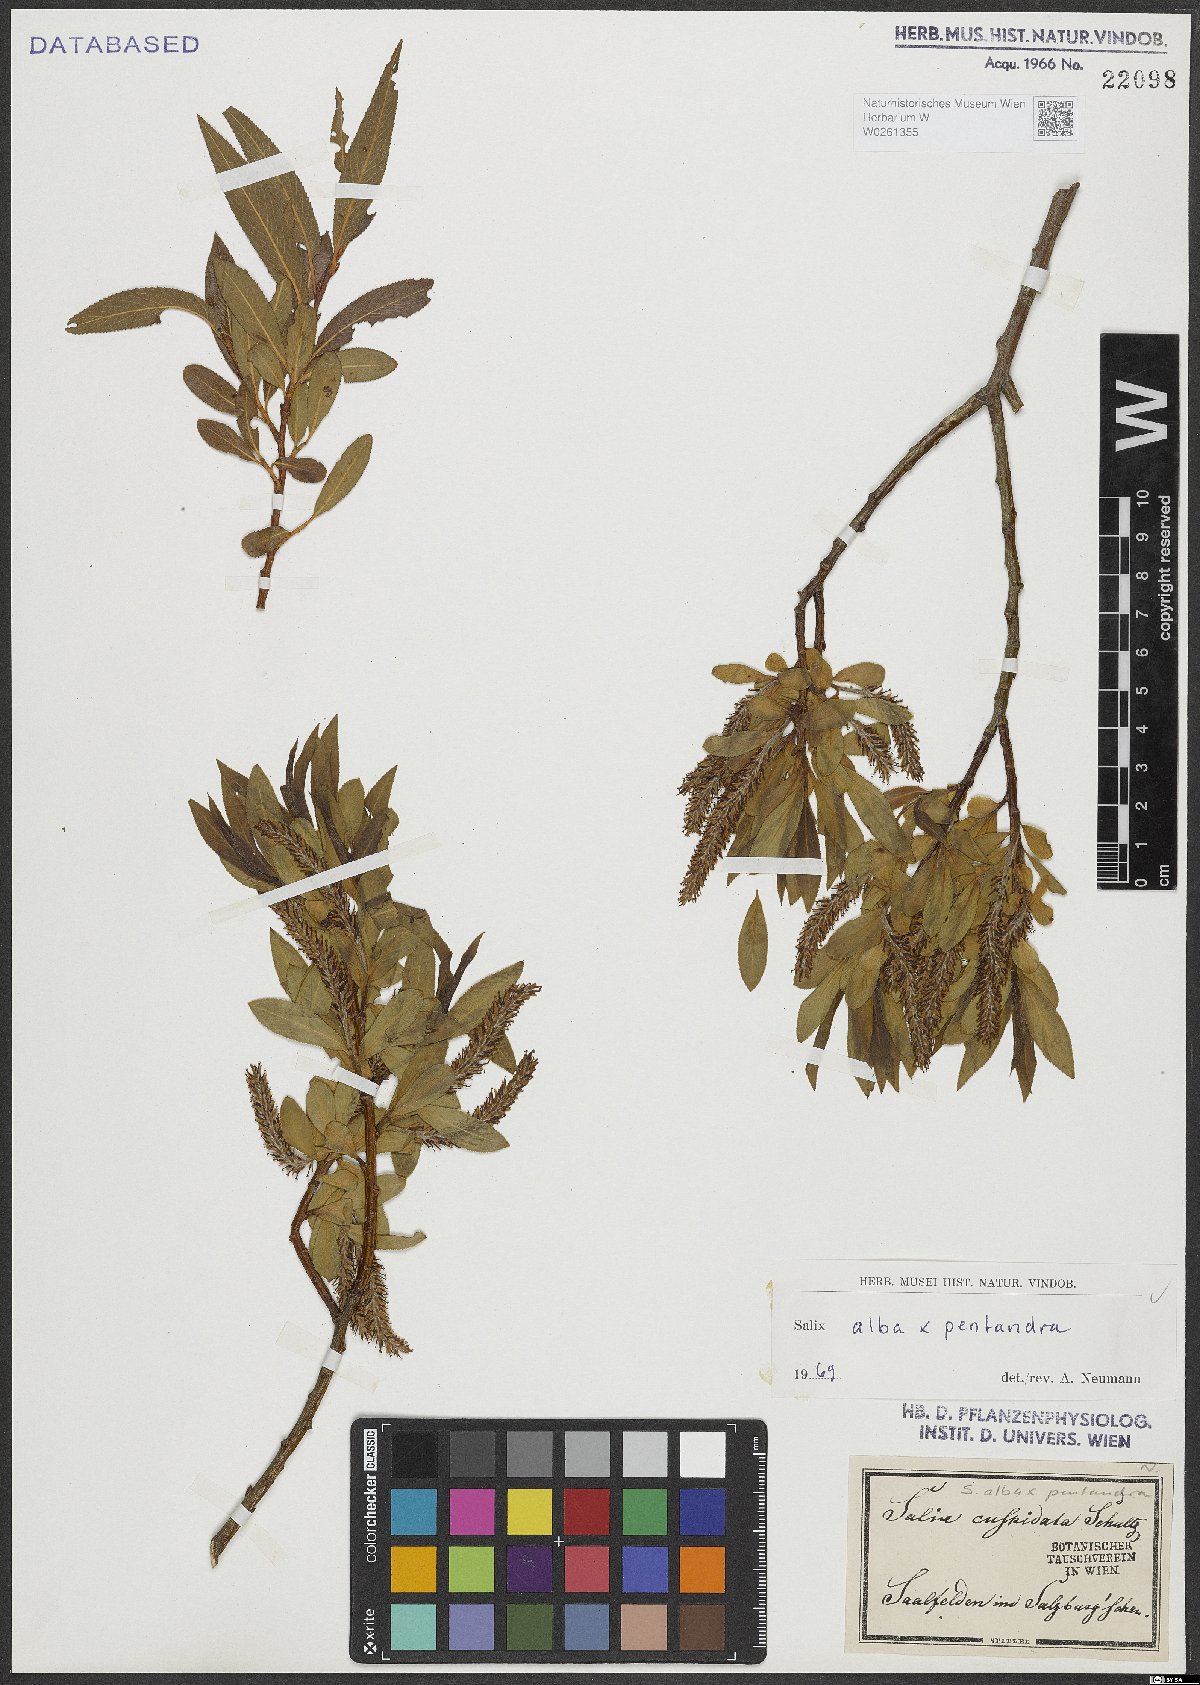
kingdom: Plantae
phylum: Tracheophyta
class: Magnoliopsida
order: Malpighiales
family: Salicaceae
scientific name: Salicaceae
